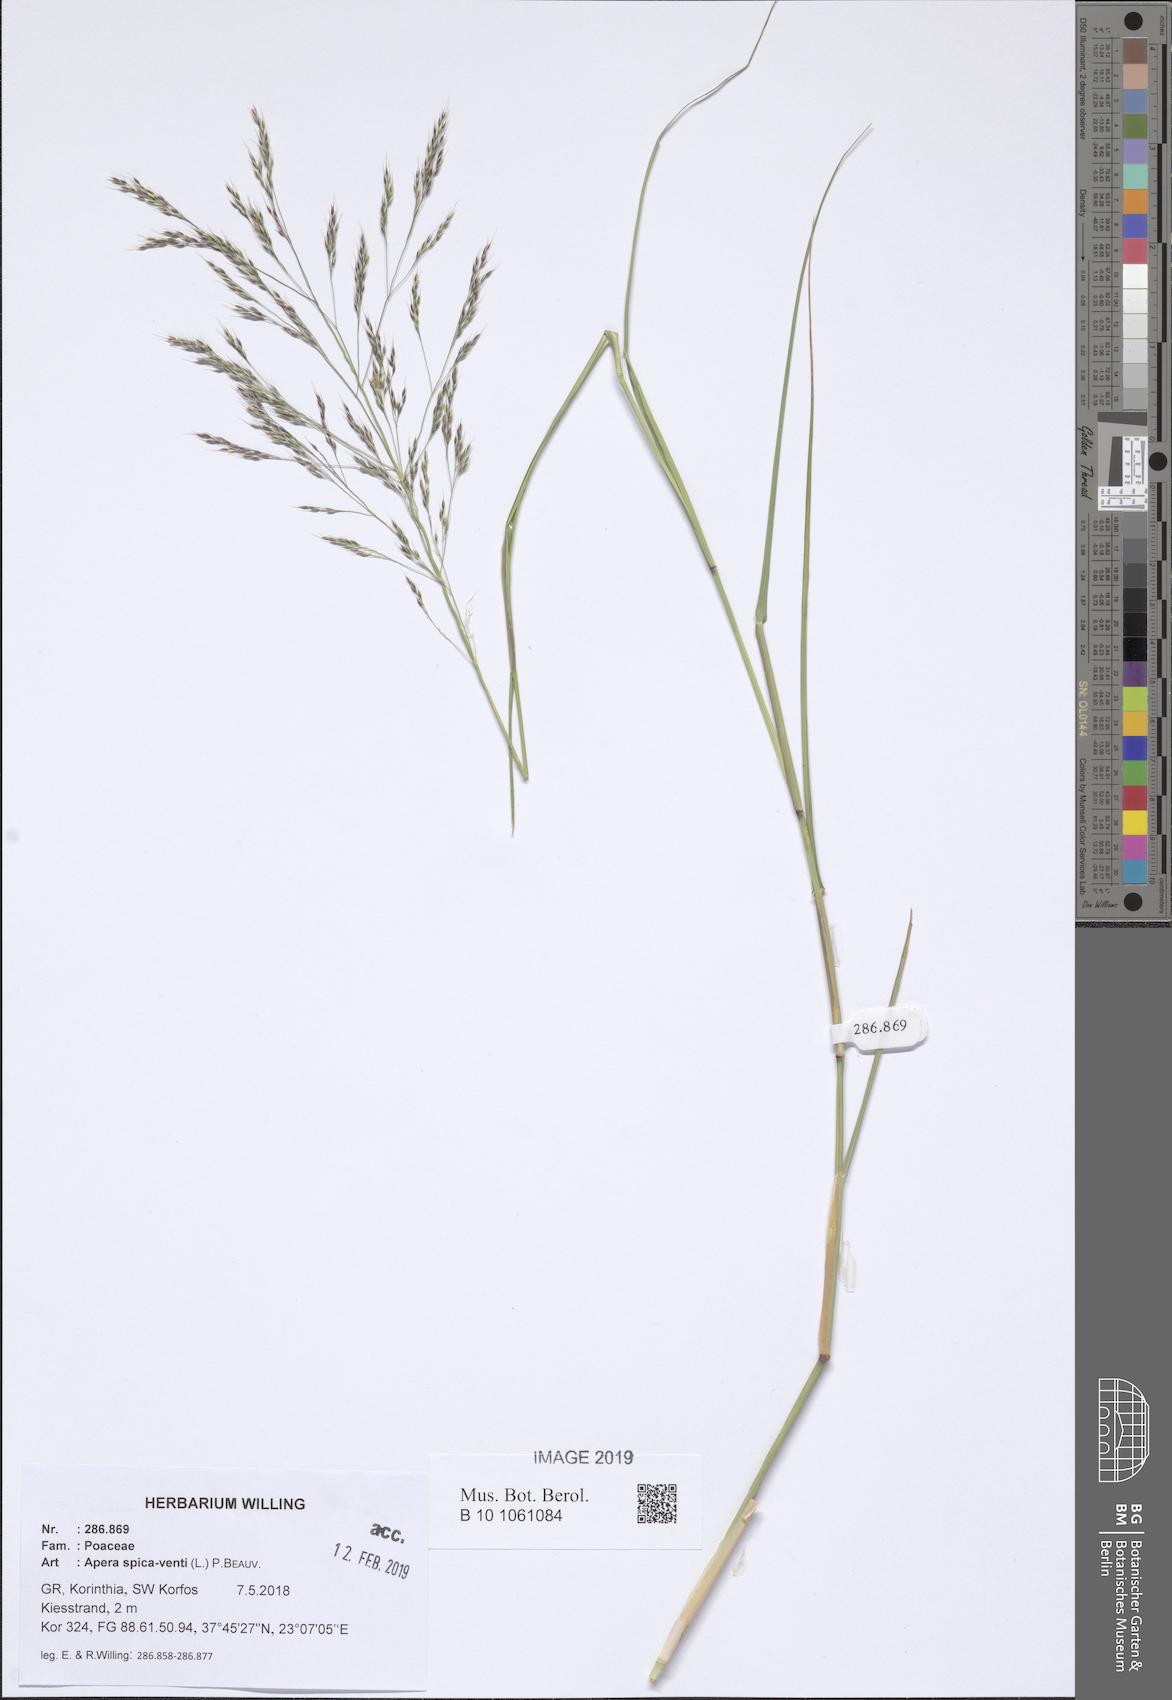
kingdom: Plantae
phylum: Tracheophyta
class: Liliopsida
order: Poales
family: Poaceae
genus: Apera
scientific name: Apera spica-venti
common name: Loose silky-bent
